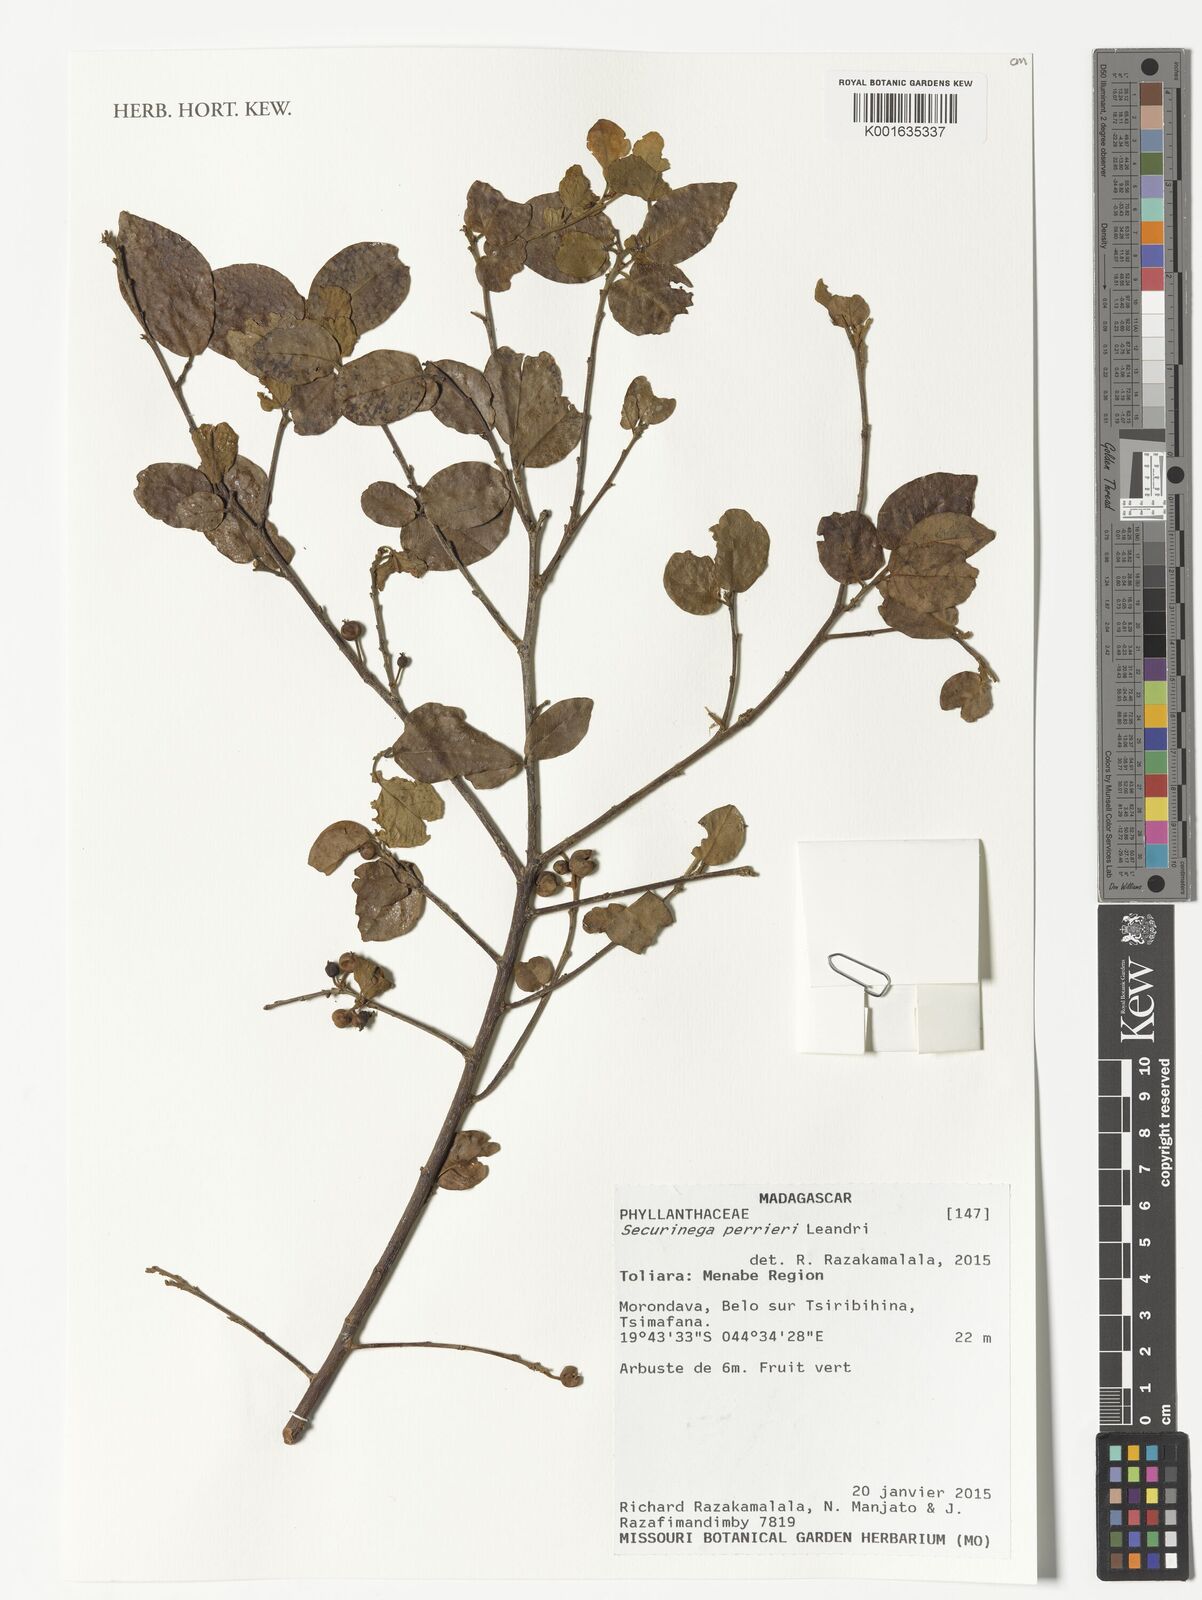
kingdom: Plantae
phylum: Tracheophyta
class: Magnoliopsida
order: Malpighiales
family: Phyllanthaceae
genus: Securinega
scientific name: Securinega perrieri
